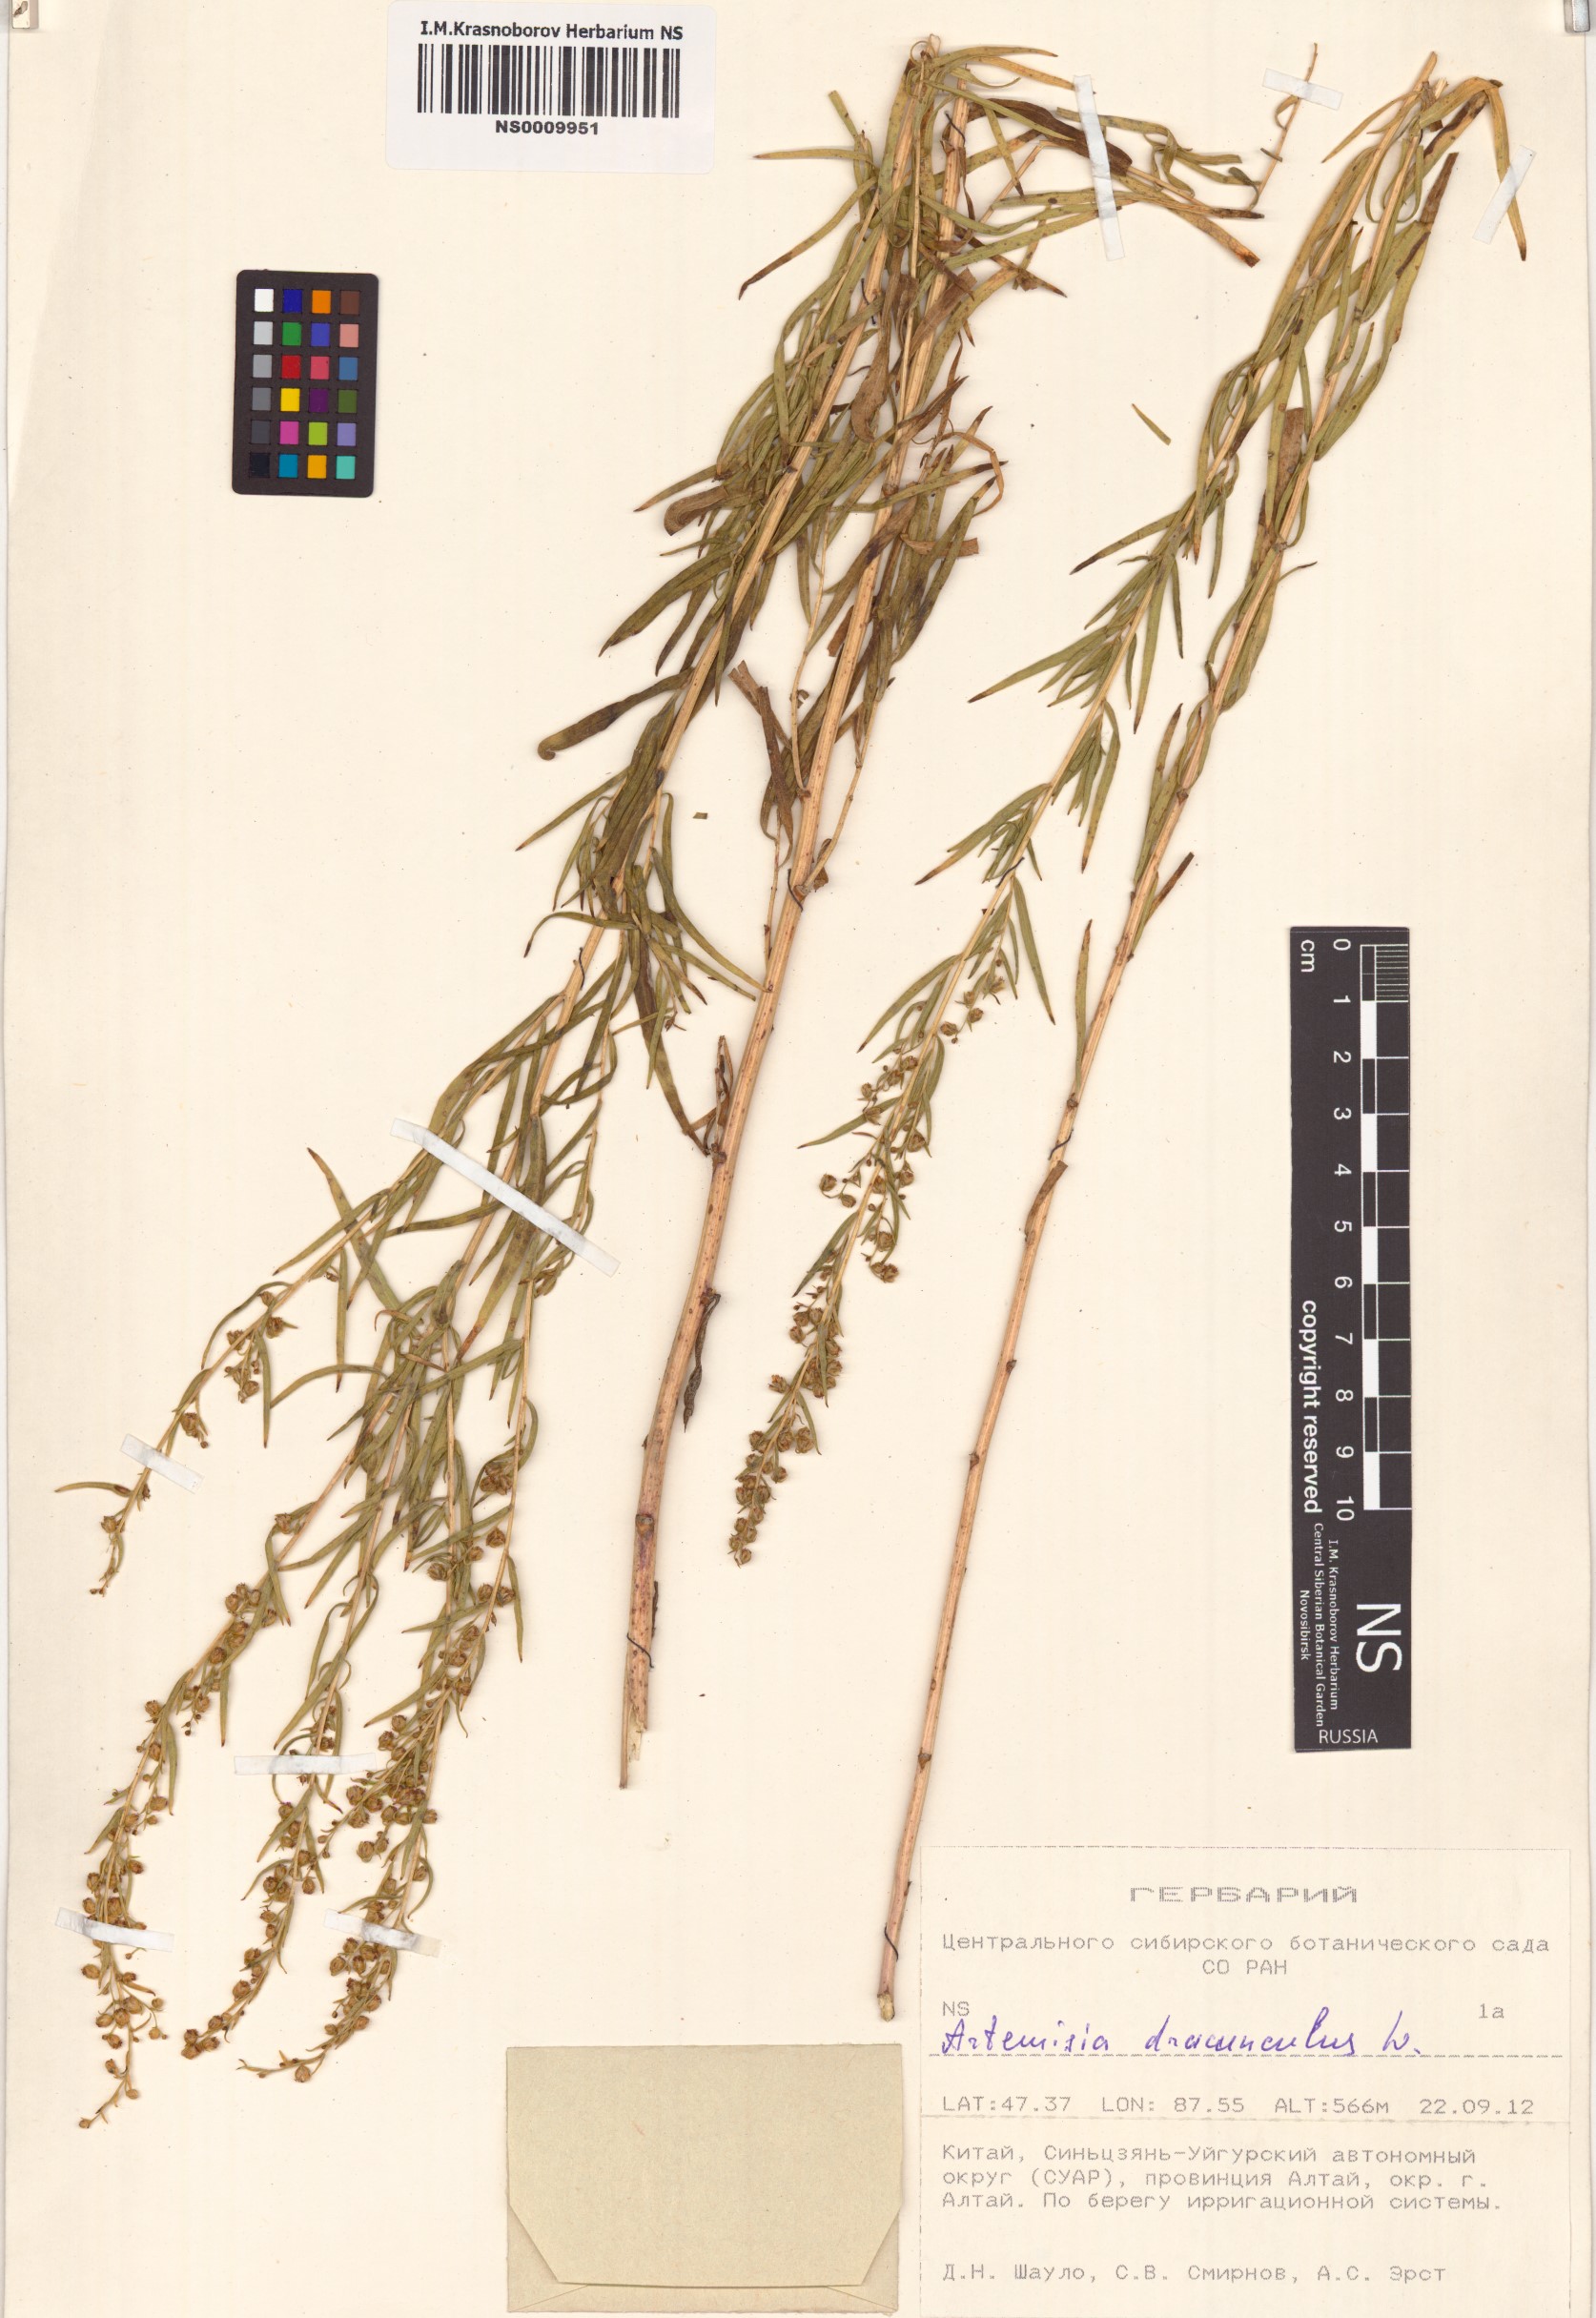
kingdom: Plantae
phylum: Tracheophyta
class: Magnoliopsida
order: Asterales
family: Asteraceae
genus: Artemisia
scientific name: Artemisia dracunculus
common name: Tarragon
